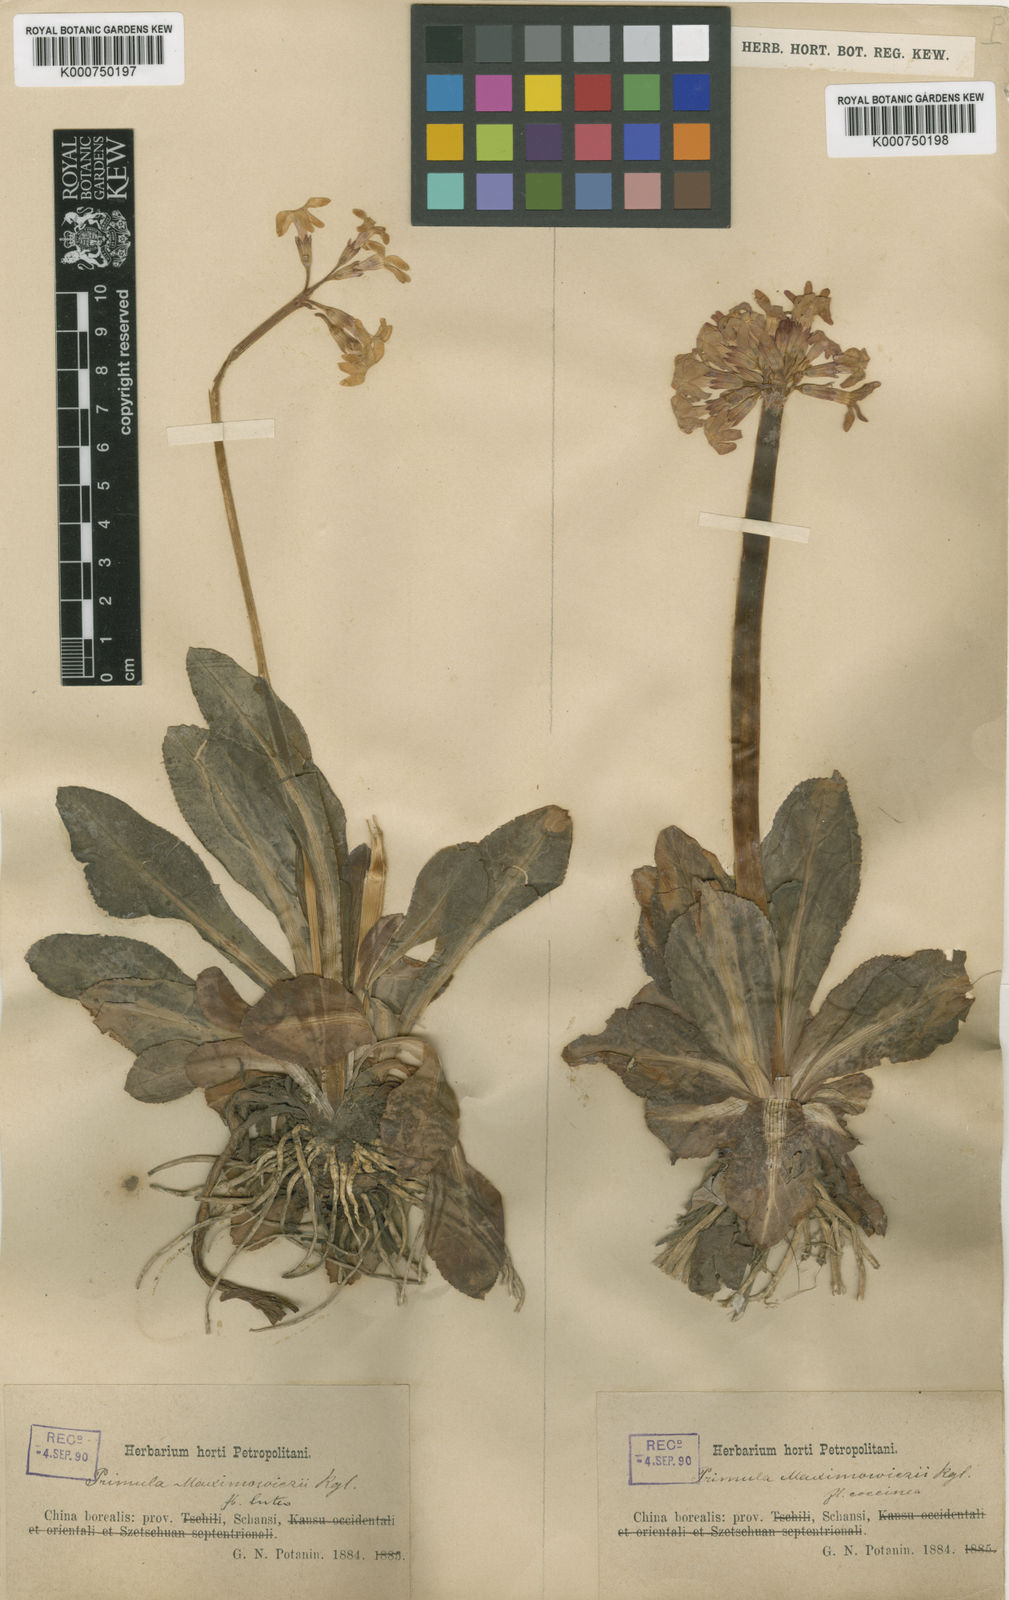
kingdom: Plantae
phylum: Tracheophyta
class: Magnoliopsida
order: Ericales
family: Primulaceae
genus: Primula
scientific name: Primula maximowiczii
